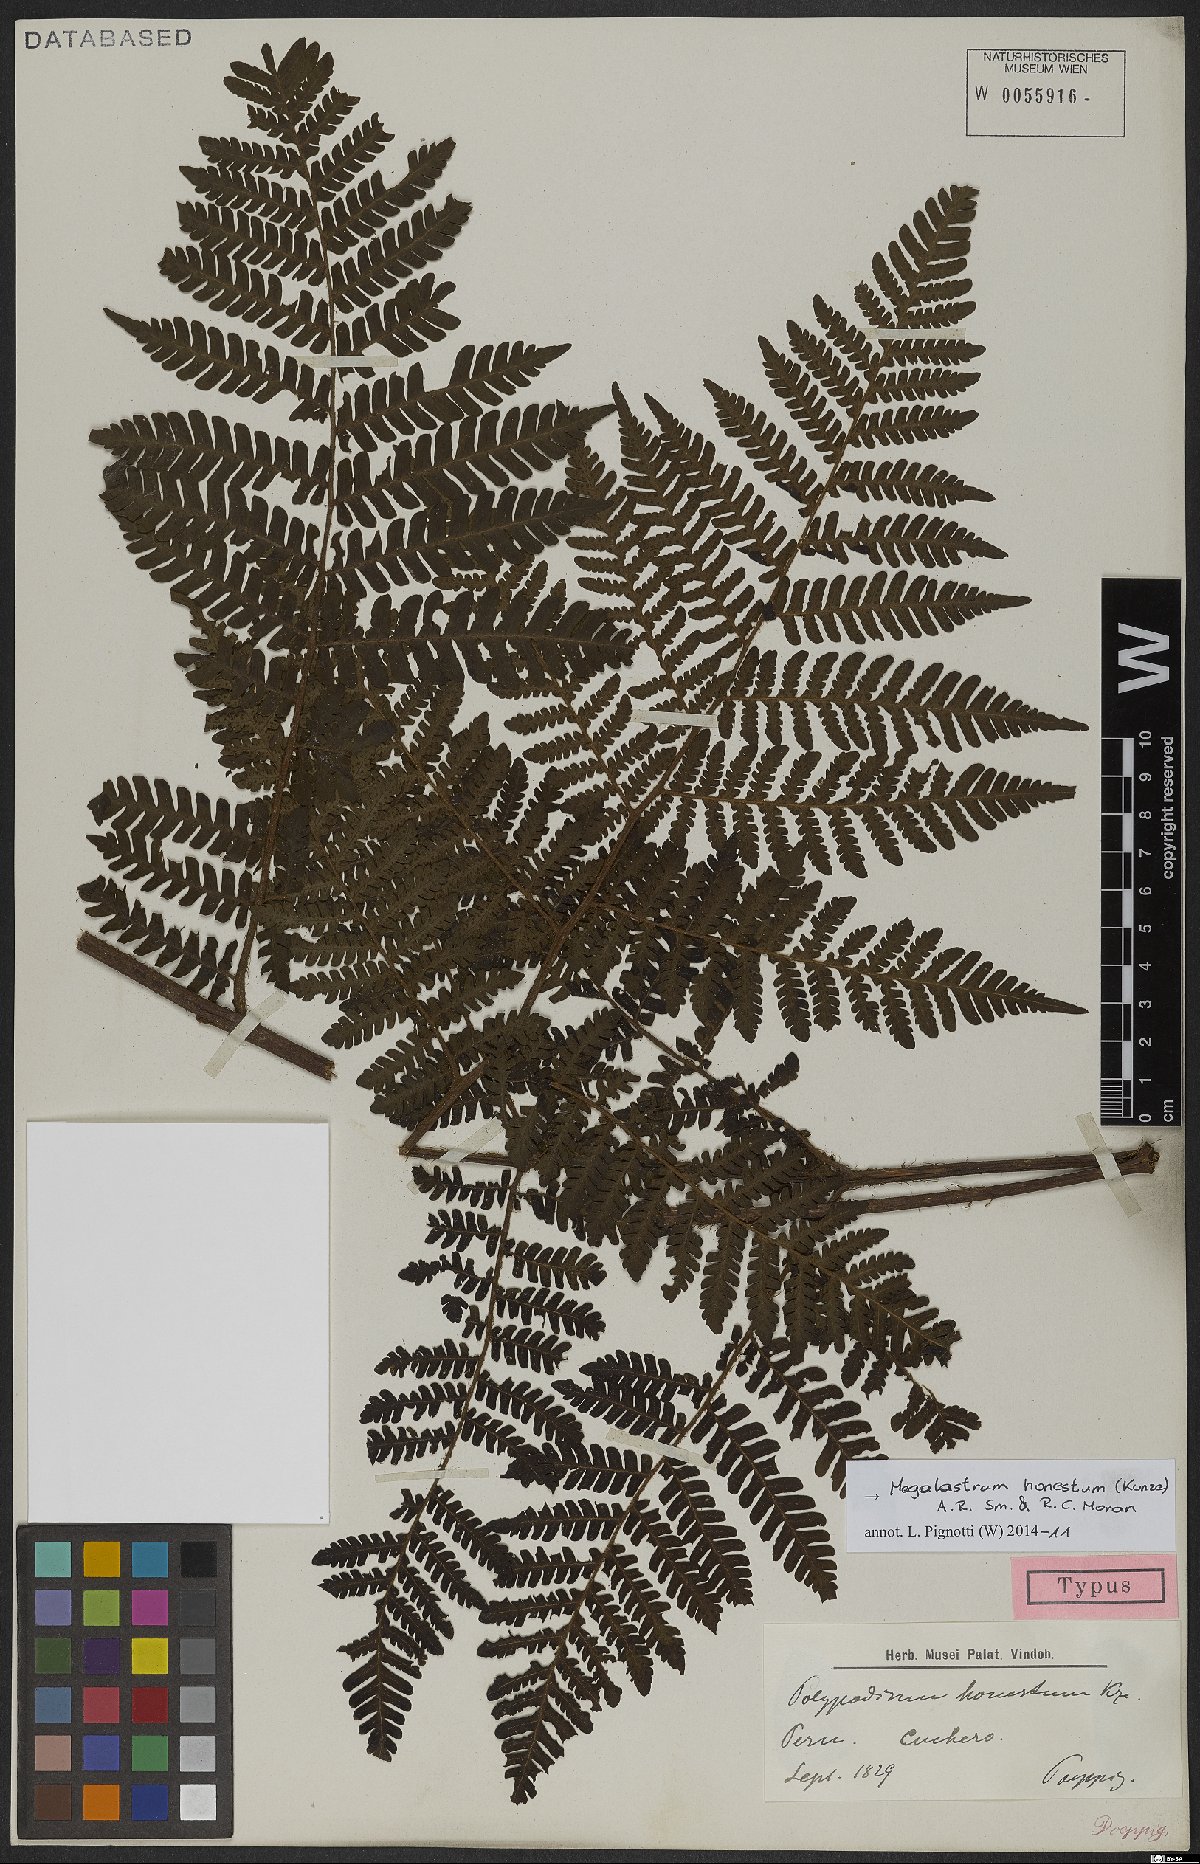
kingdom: Plantae
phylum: Tracheophyta
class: Polypodiopsida
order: Polypodiales
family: Dryopteridaceae
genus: Megalastrum
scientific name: Megalastrum honestum
